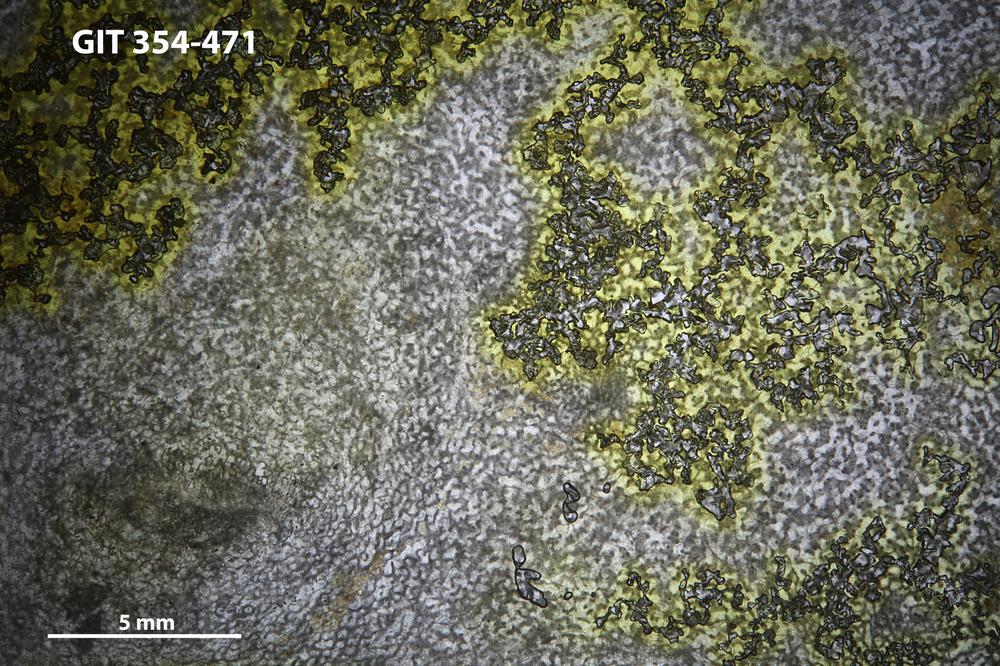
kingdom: Animalia
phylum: Porifera
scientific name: Porifera
